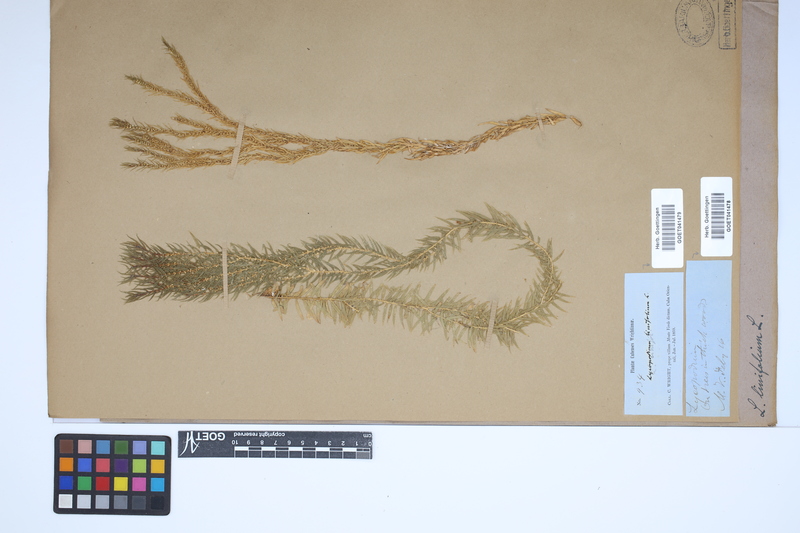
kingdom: Plantae
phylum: Tracheophyta
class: Lycopodiopsida
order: Lycopodiales
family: Lycopodiaceae
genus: Phlegmariurus
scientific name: Phlegmariurus linifolius
